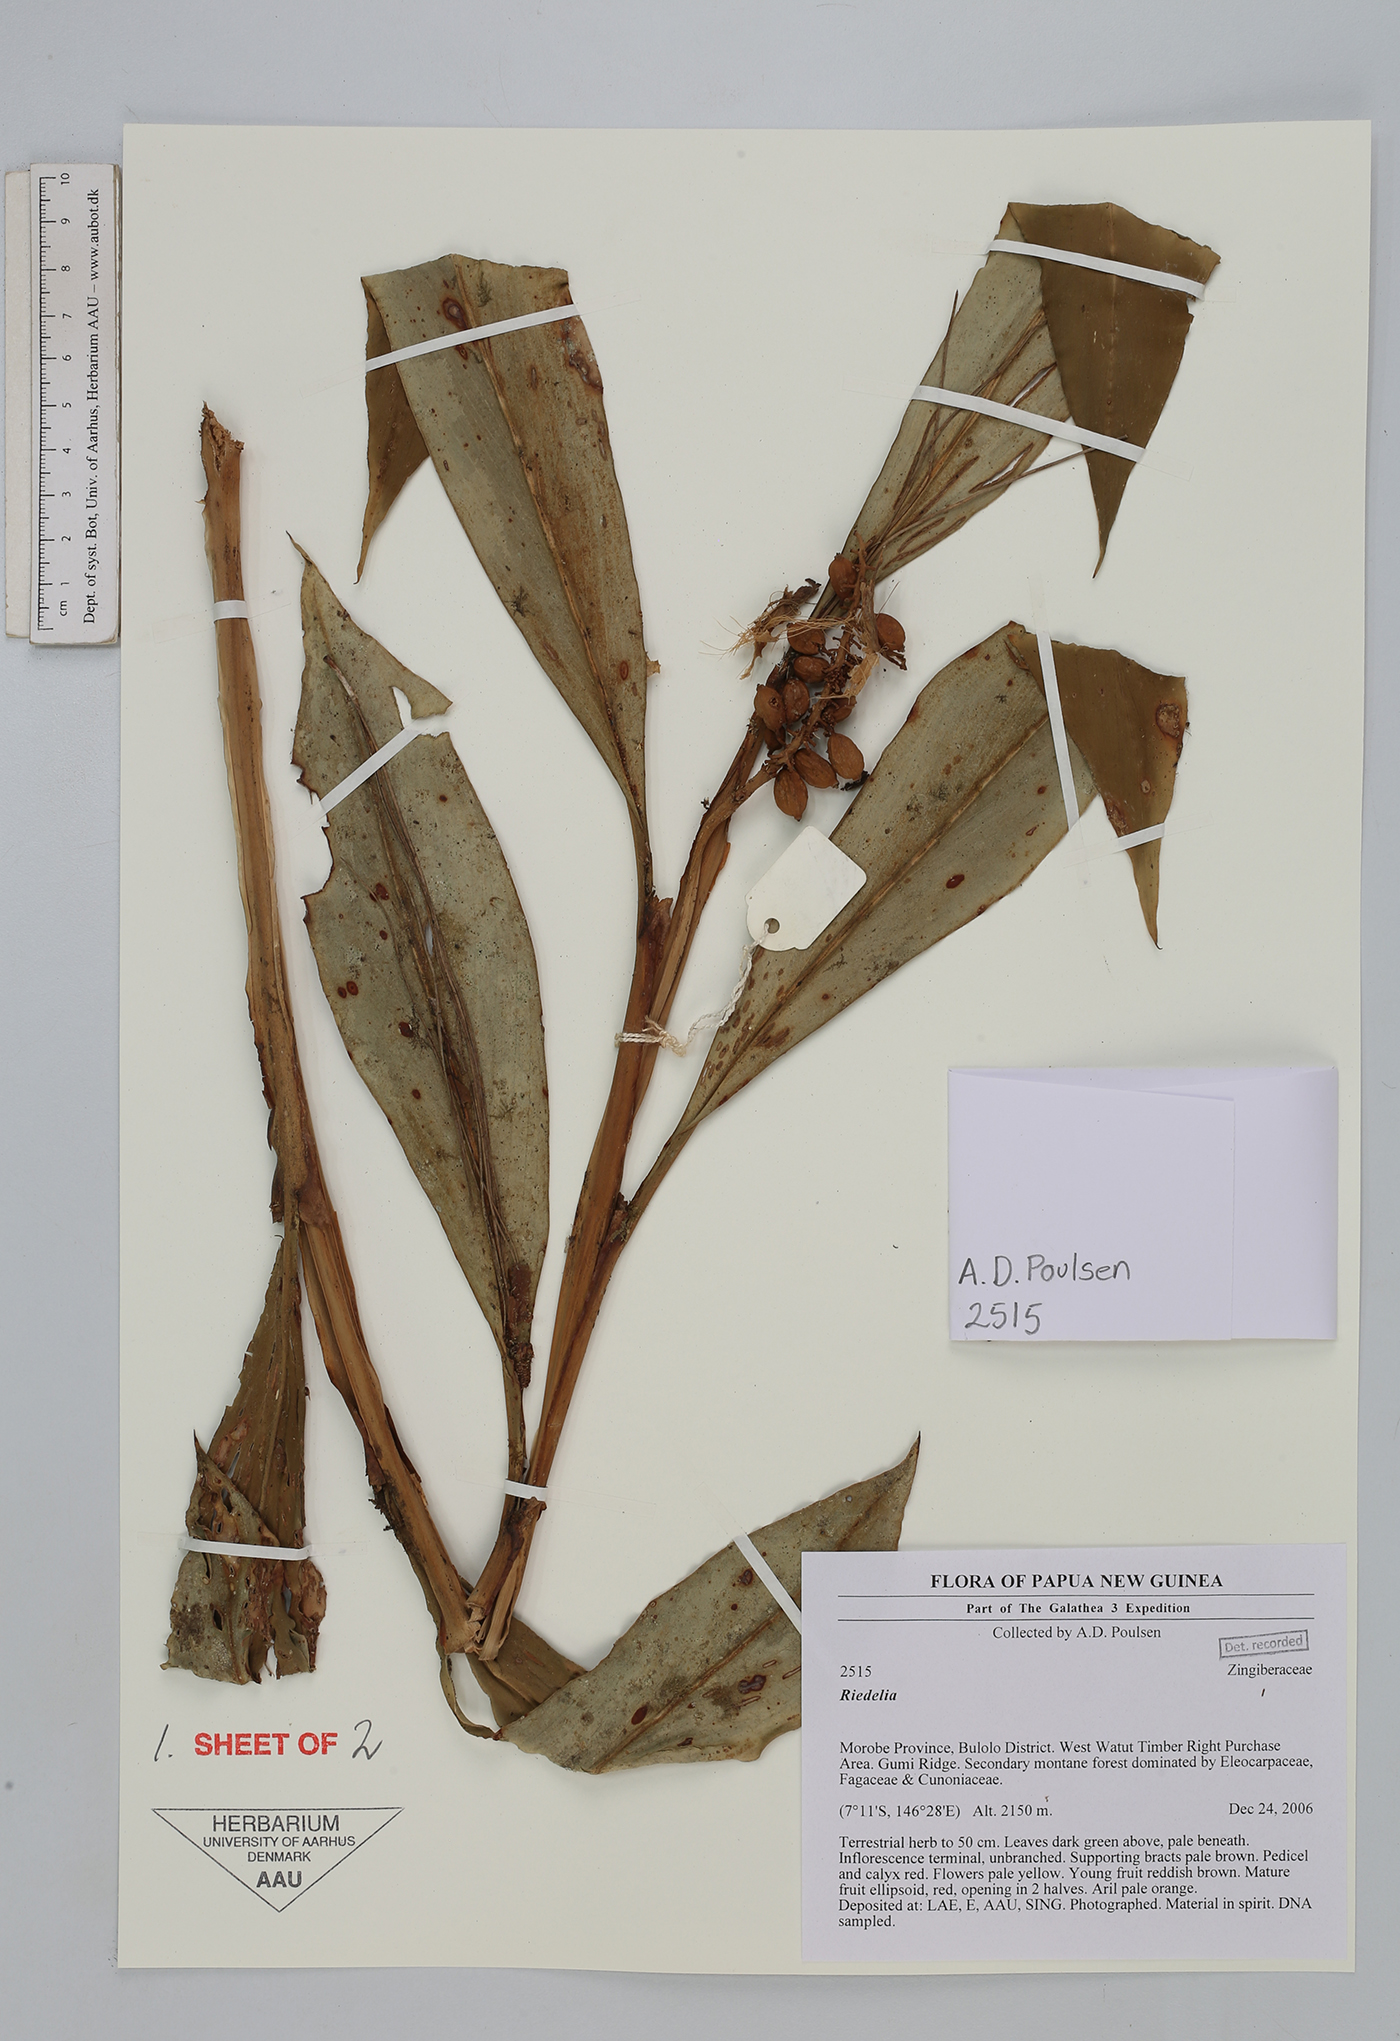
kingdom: Plantae
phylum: Tracheophyta
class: Liliopsida
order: Zingiberales
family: Zingiberaceae
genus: Riedelia
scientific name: Riedelia
